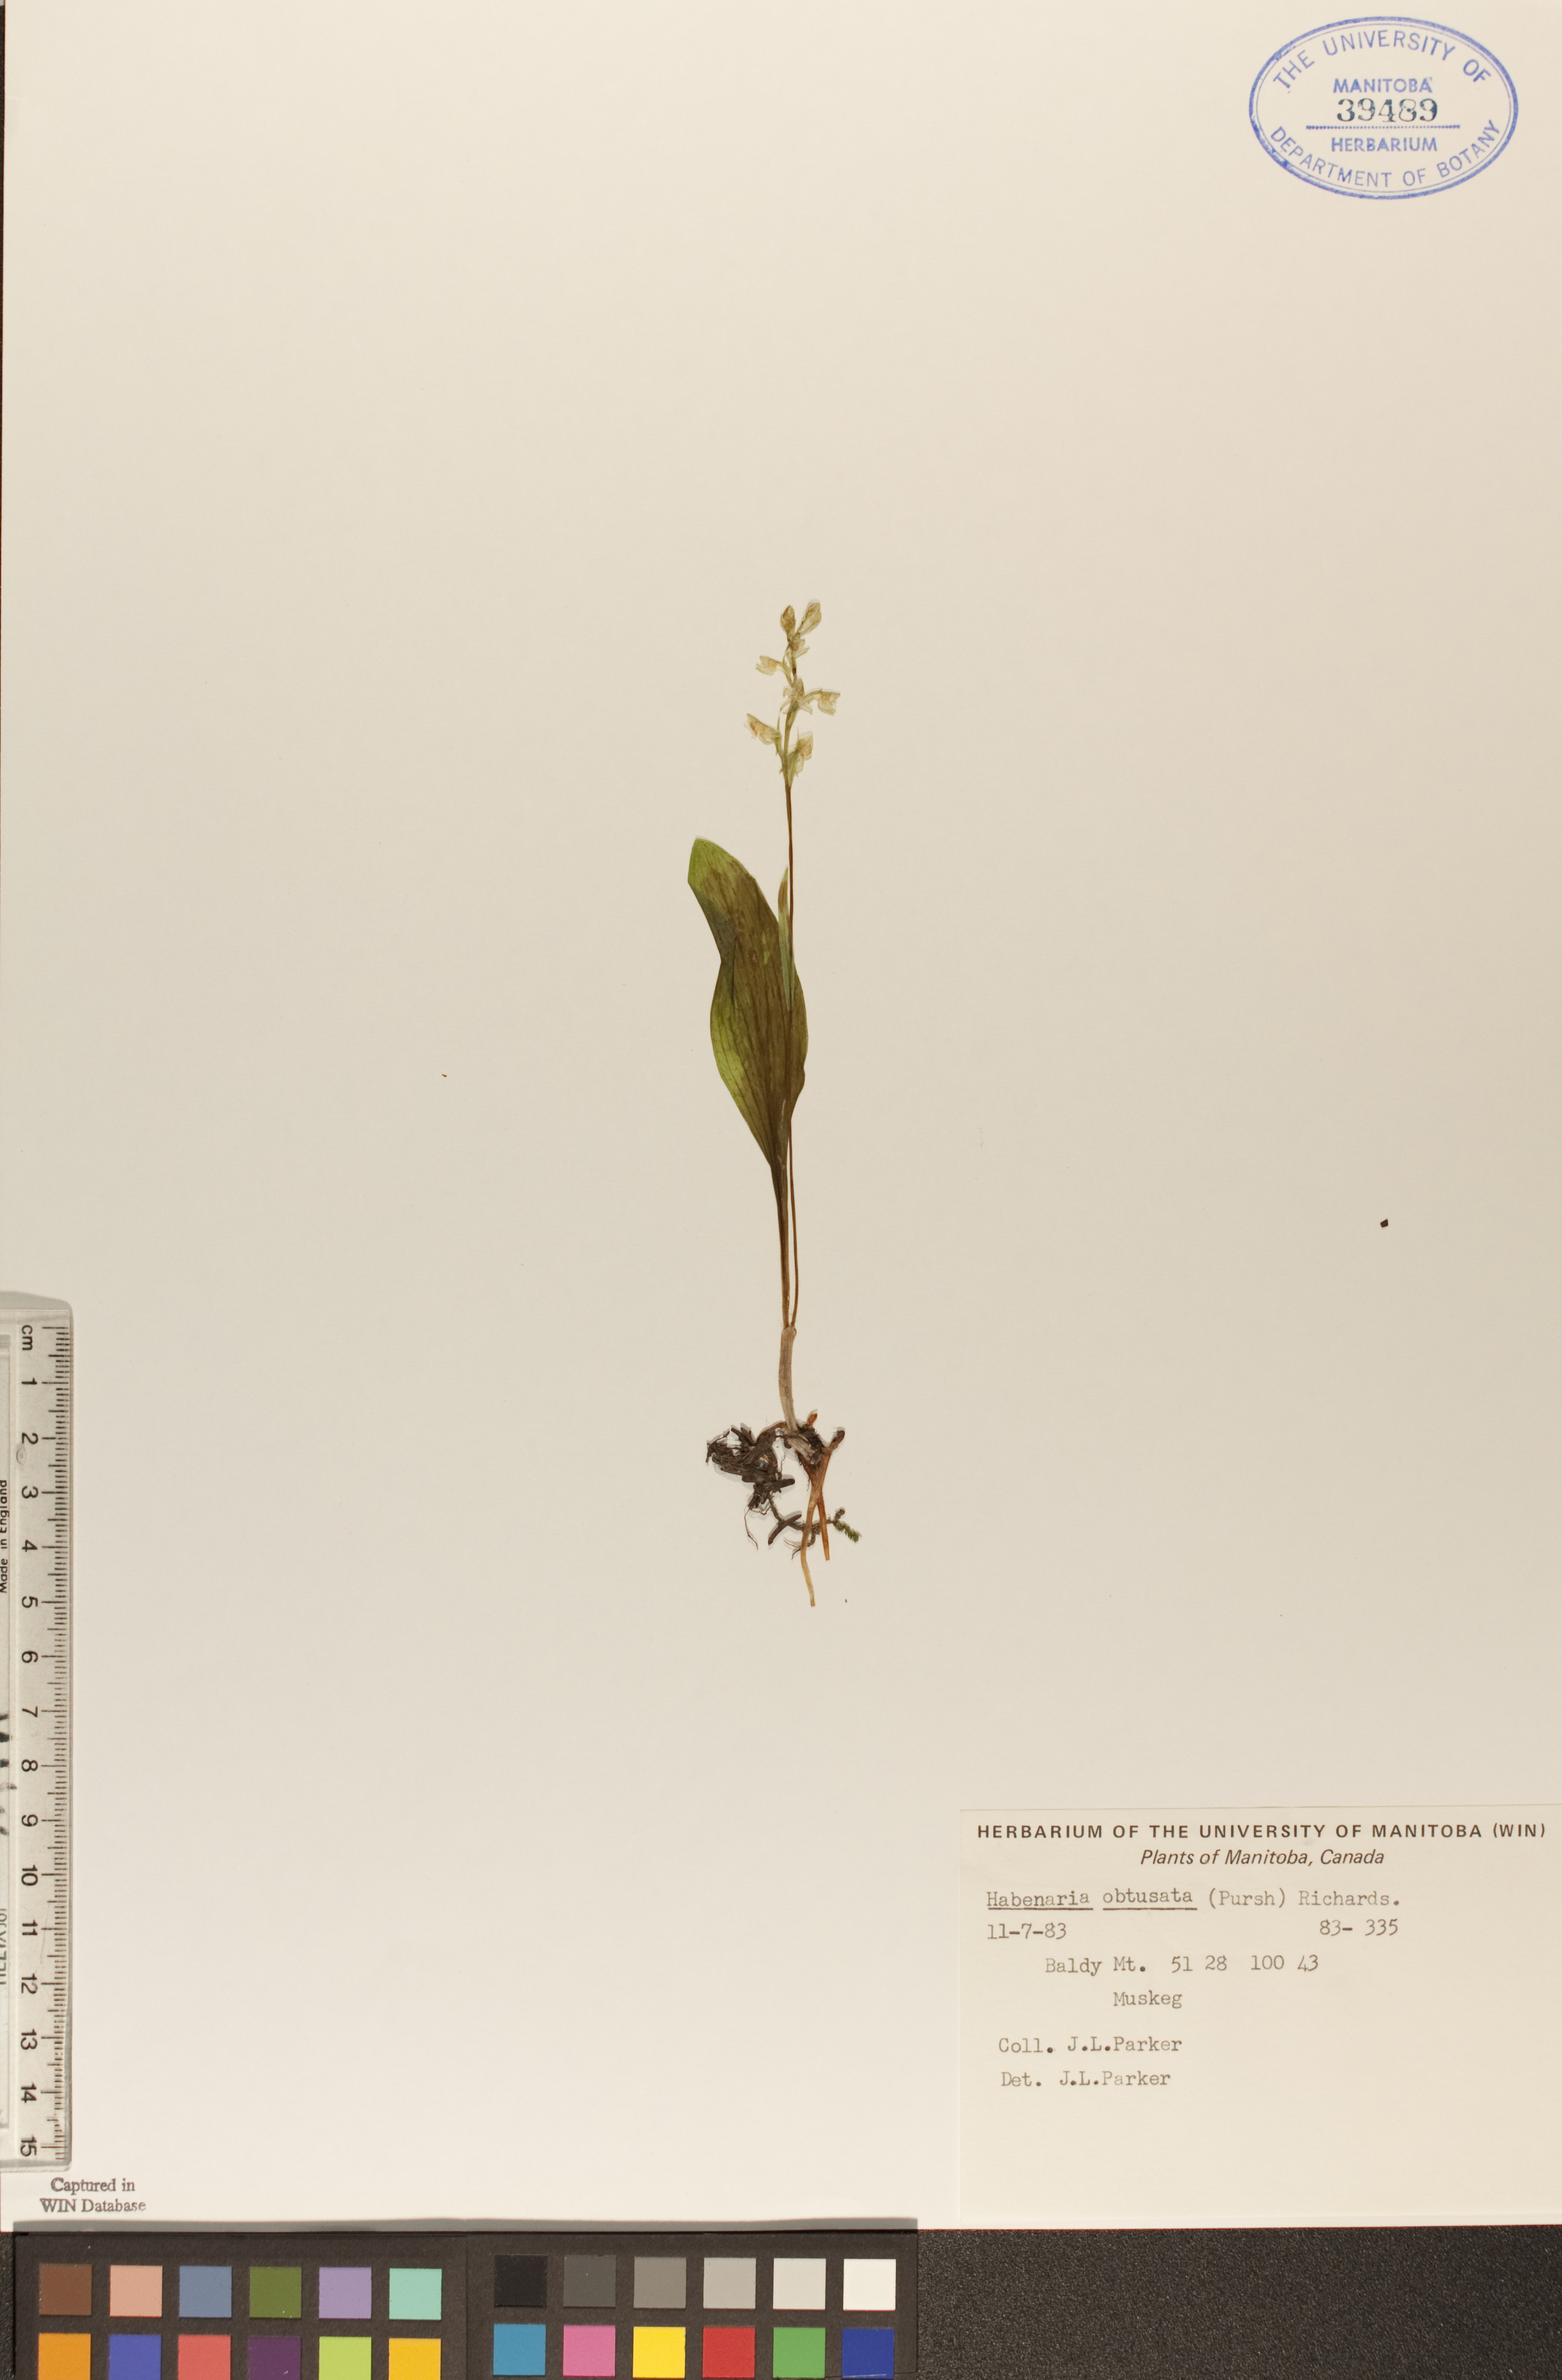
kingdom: Plantae
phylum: Tracheophyta
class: Liliopsida
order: Asparagales
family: Orchidaceae
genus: Platanthera
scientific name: Platanthera obtusata
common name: Blunt bog orchid
